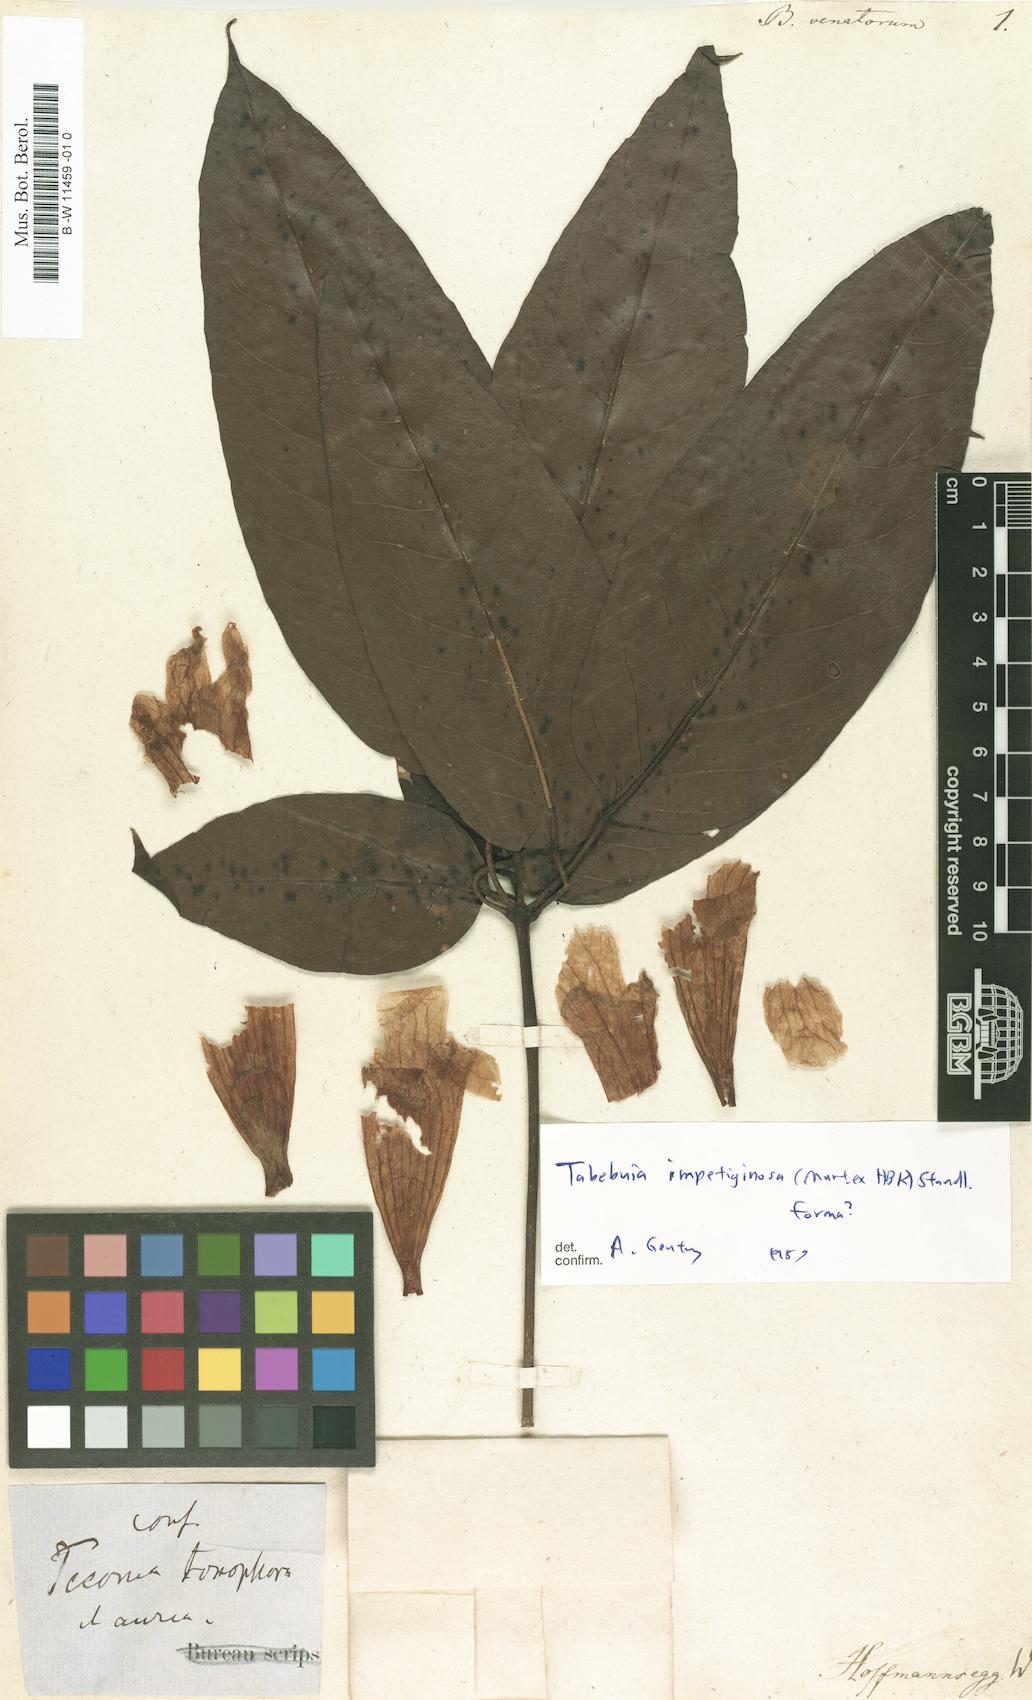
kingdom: Plantae
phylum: Tracheophyta
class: Magnoliopsida
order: Lamiales
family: Bignoniaceae
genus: Bignonia
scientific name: Bignonia
